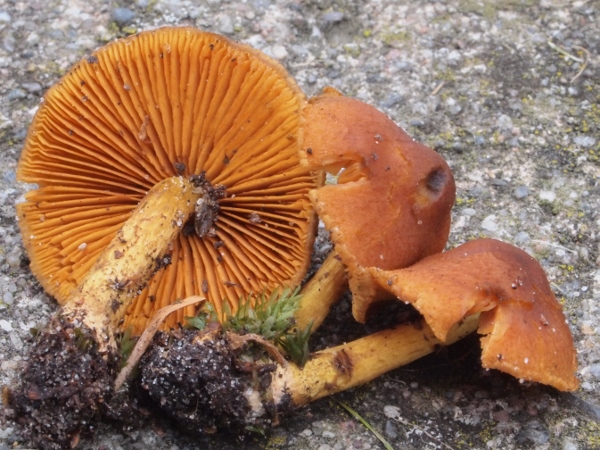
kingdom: Fungi
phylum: Basidiomycota
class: Agaricomycetes
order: Agaricales
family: Cortinariaceae
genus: Cortinarius
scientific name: Cortinarius cinnamomeus
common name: kanel-slørhat
